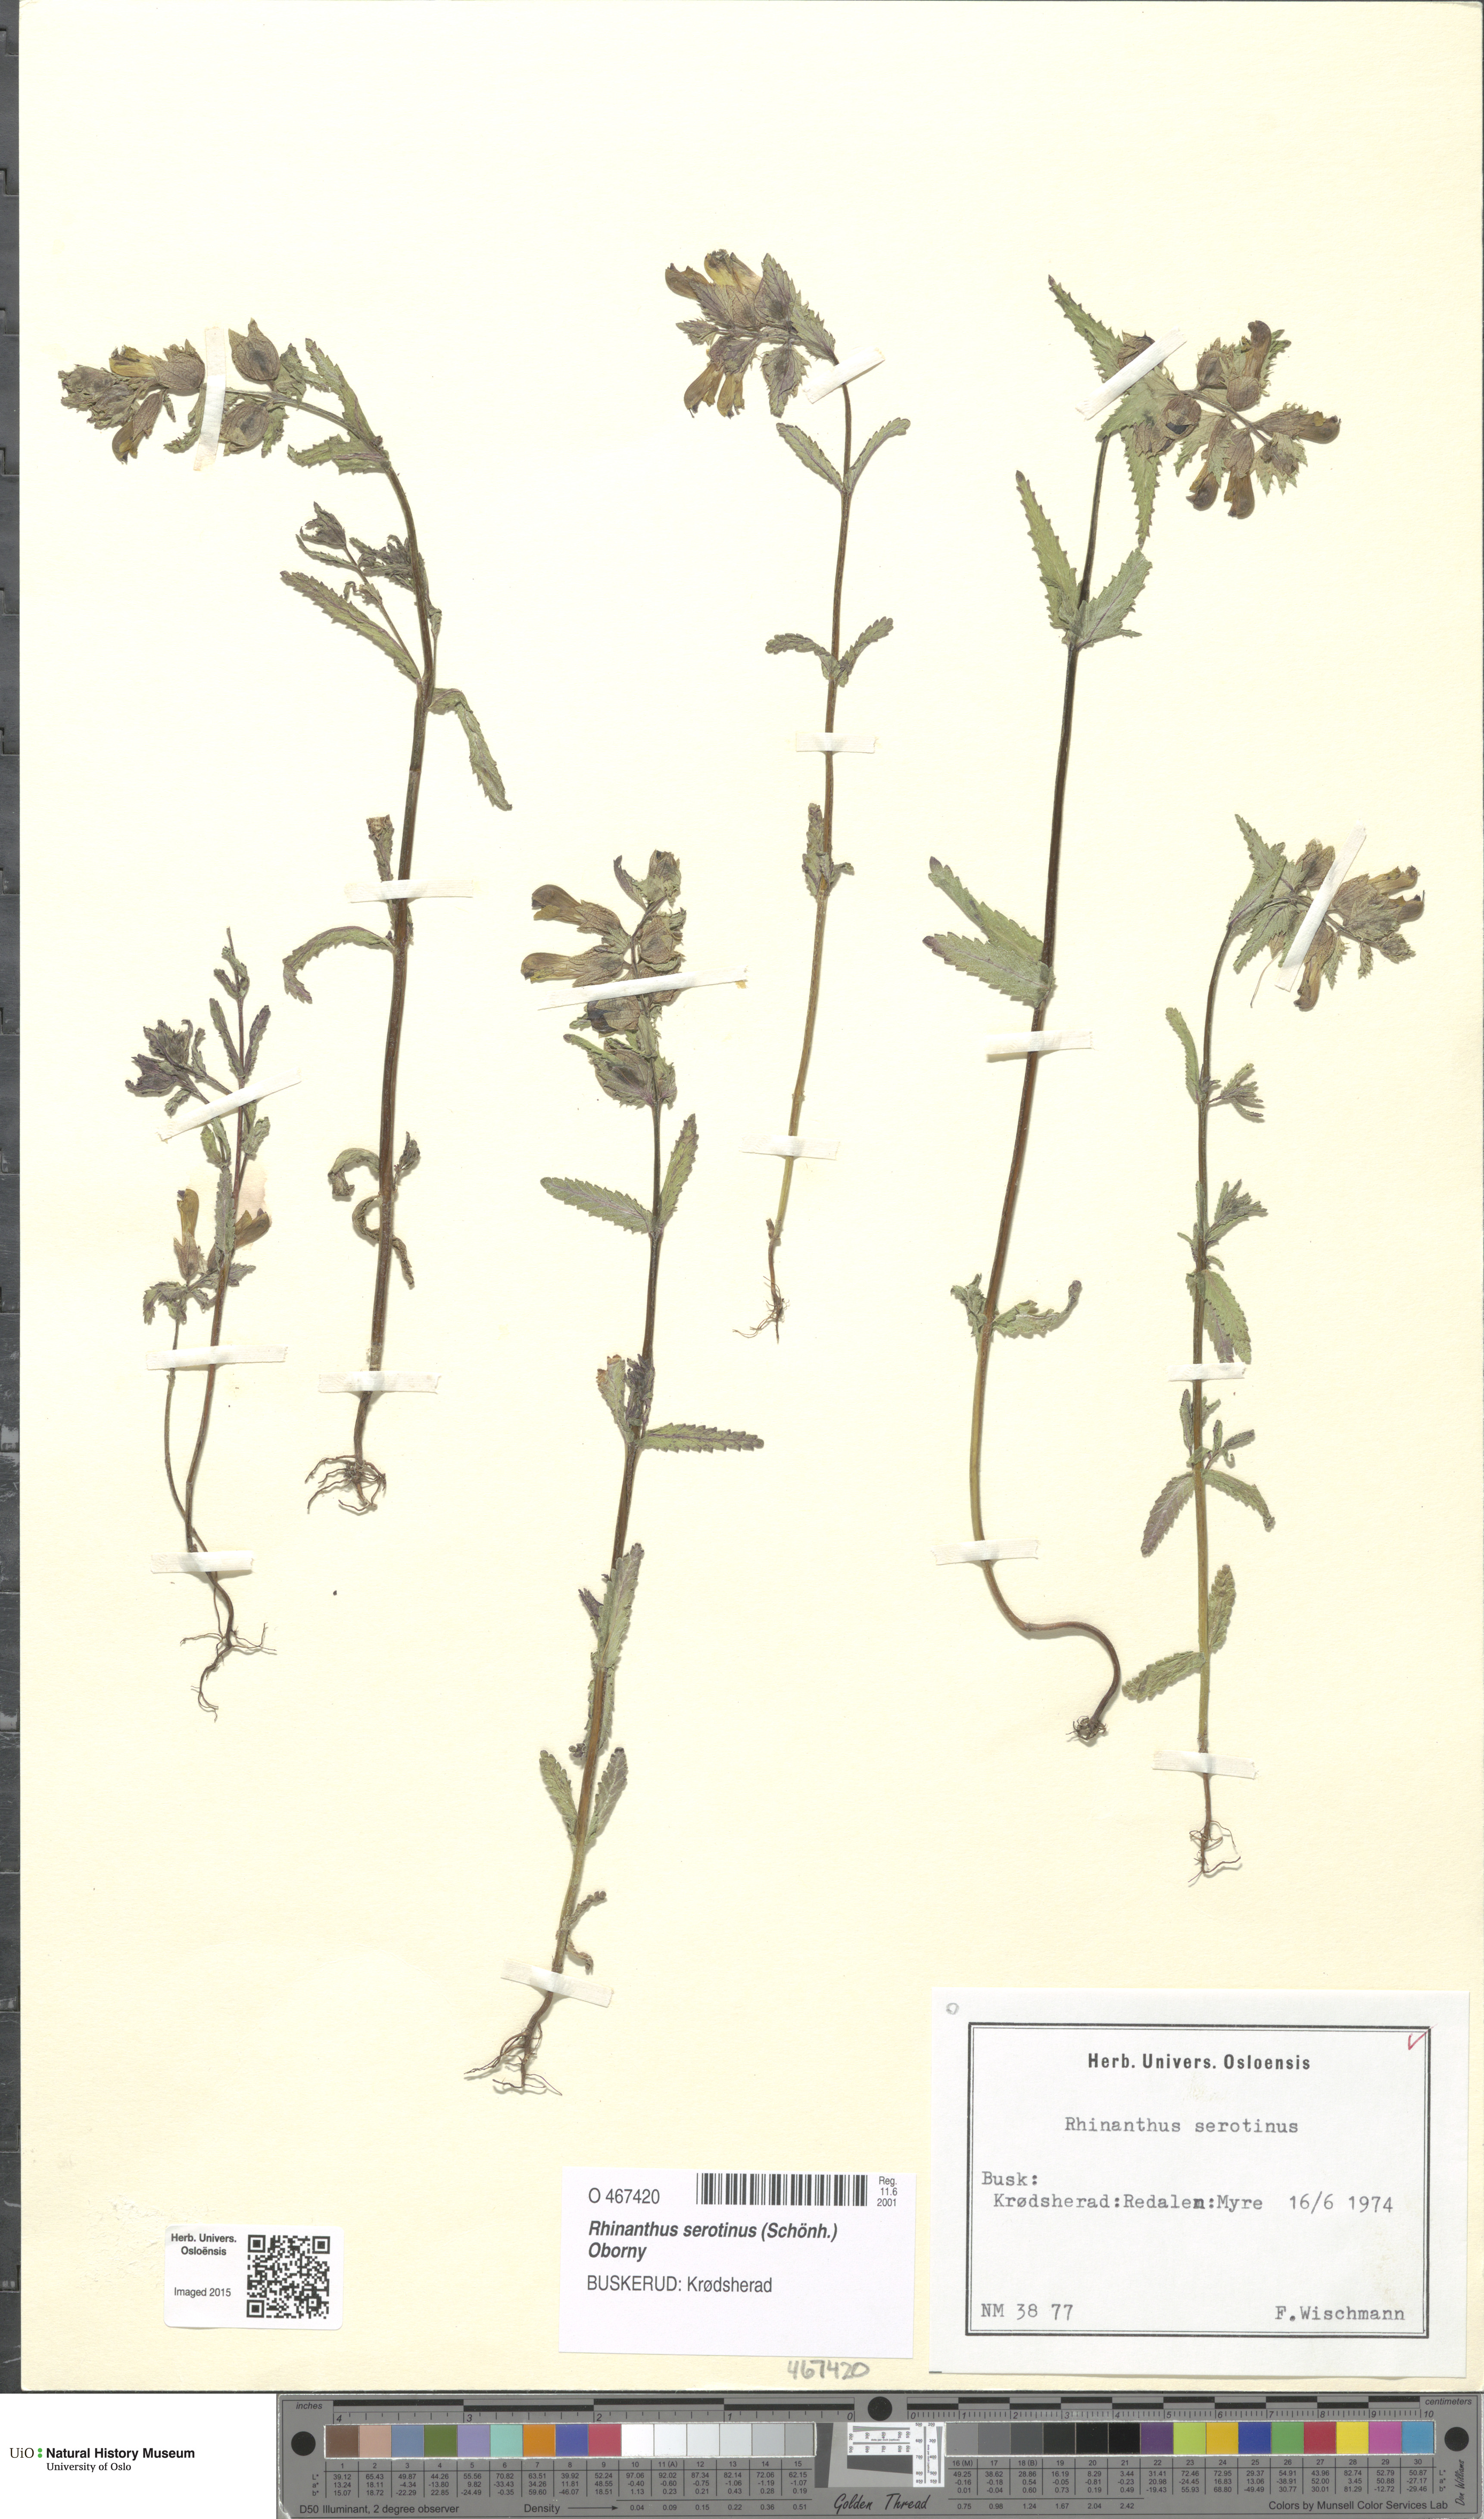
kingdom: Plantae
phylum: Tracheophyta
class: Magnoliopsida
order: Lamiales
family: Orobanchaceae
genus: Rhinanthus
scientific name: Rhinanthus
